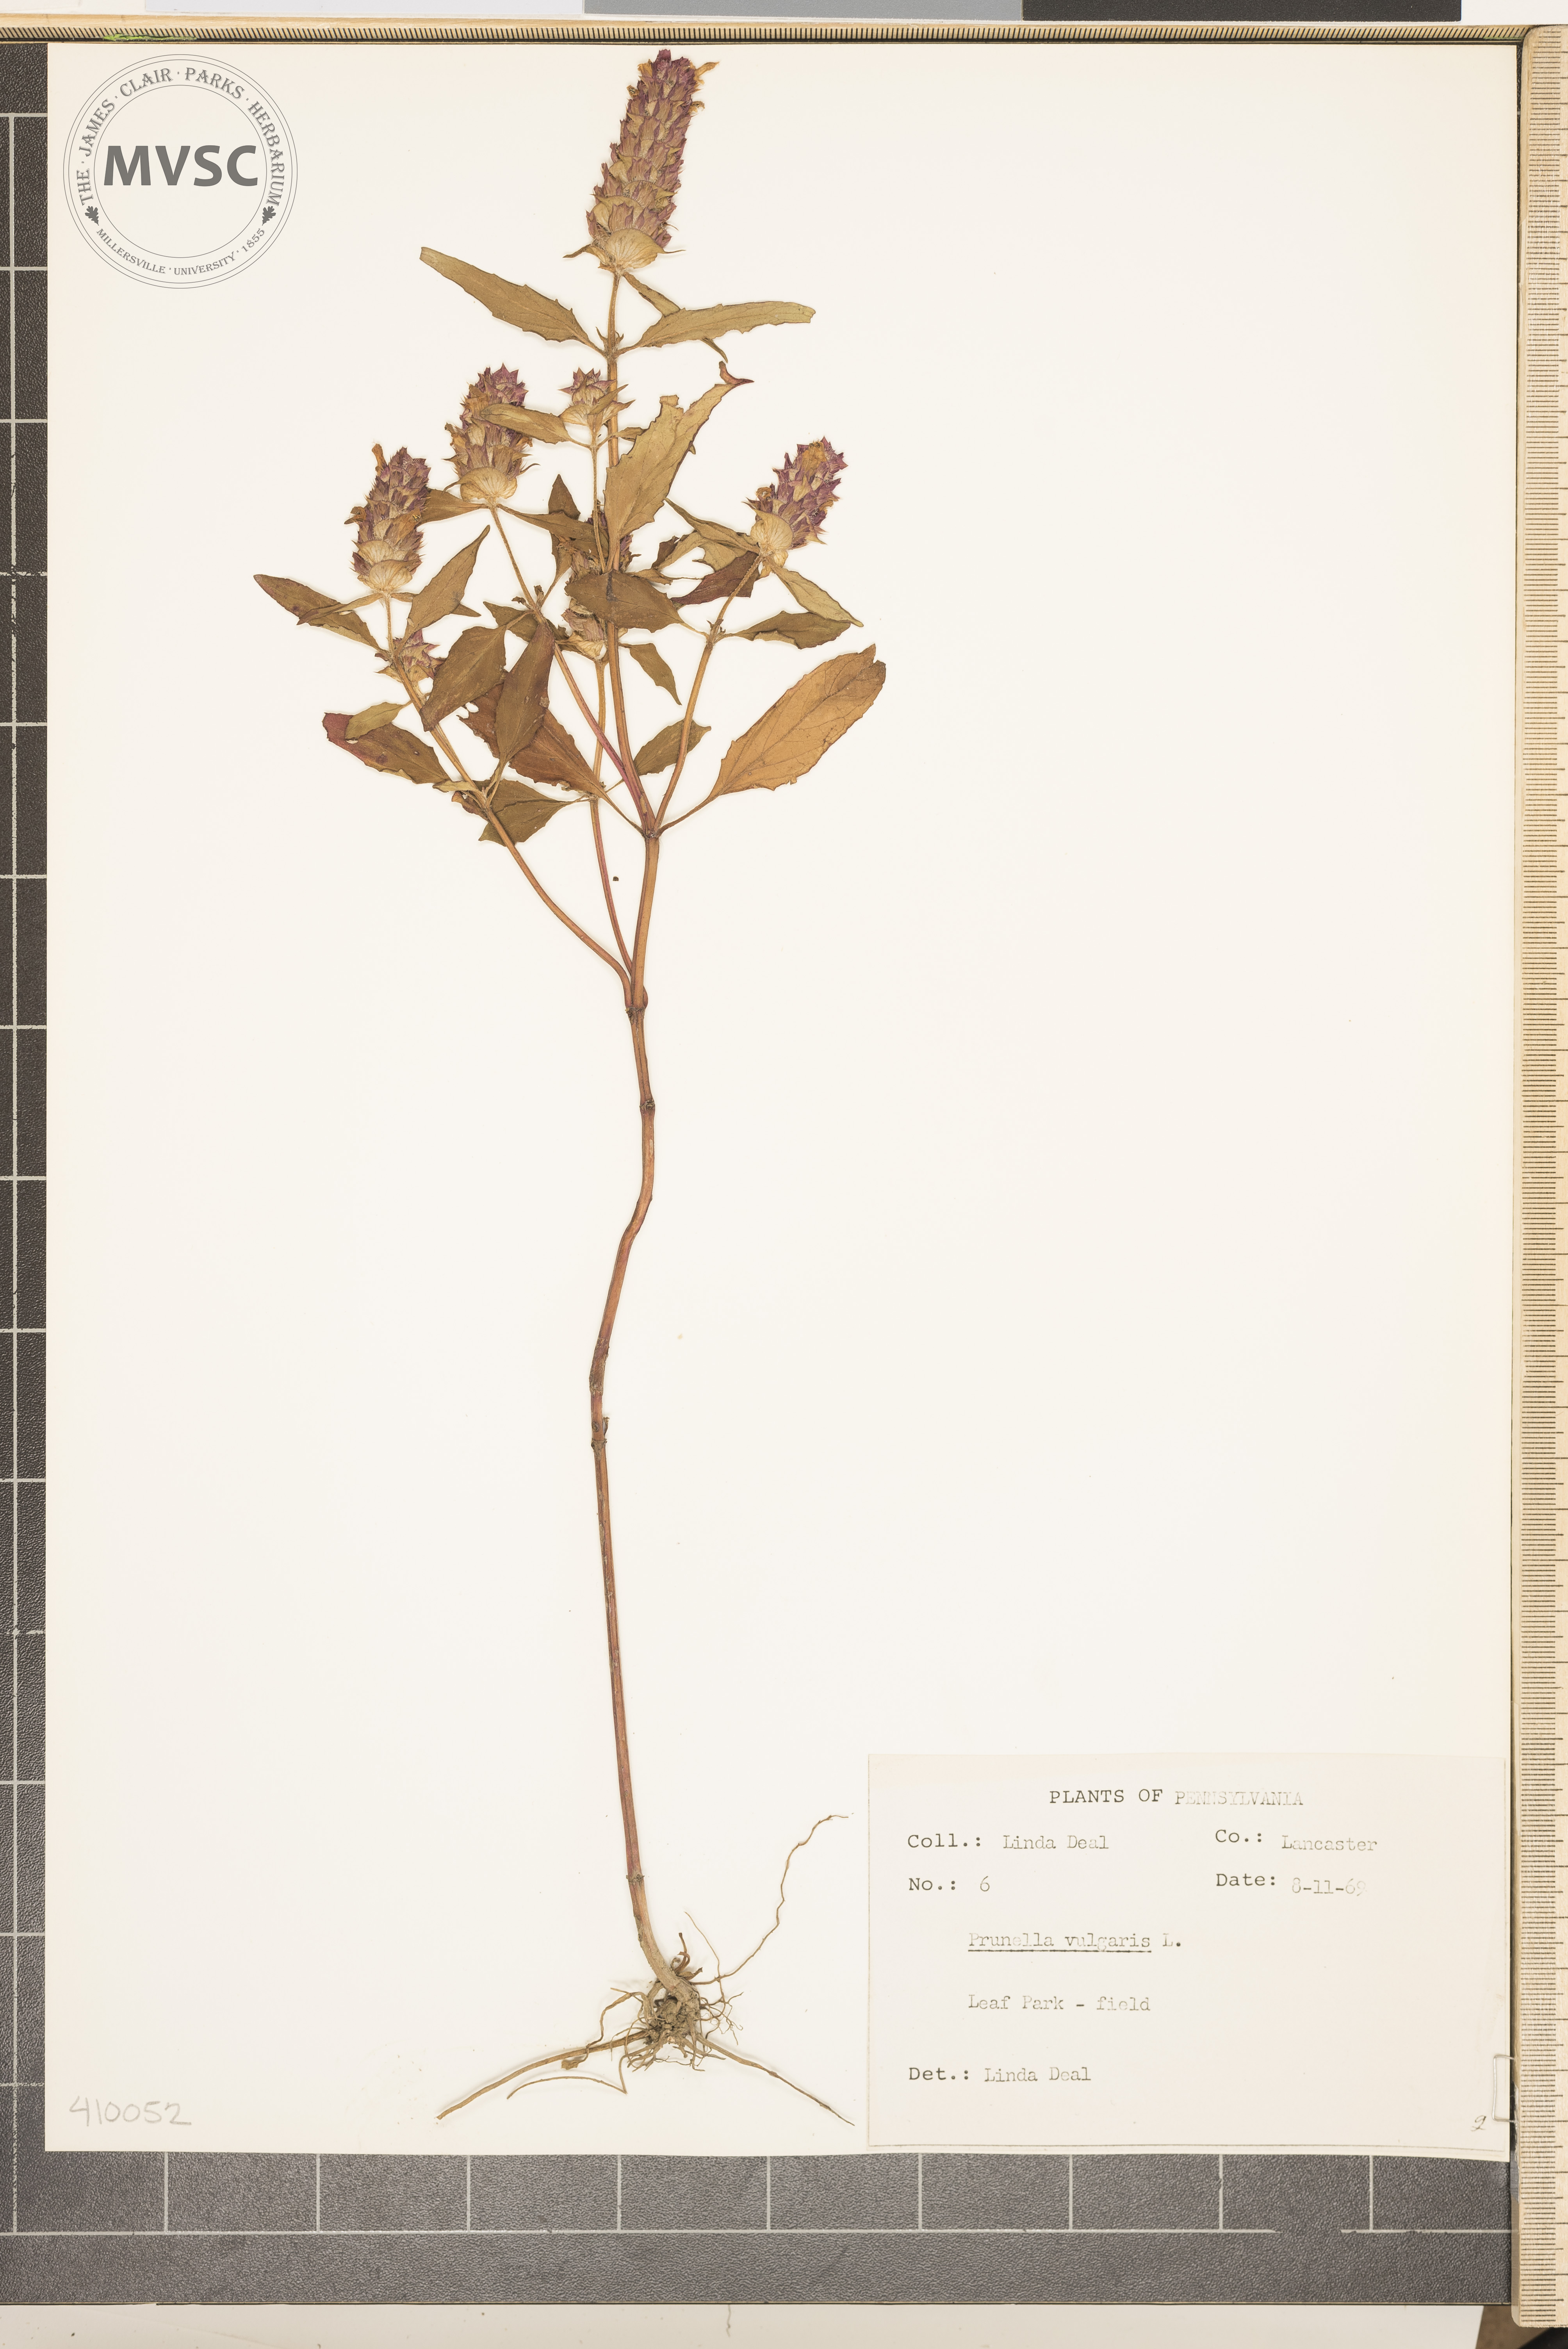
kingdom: Plantae
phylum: Tracheophyta
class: Magnoliopsida
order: Lamiales
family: Lamiaceae
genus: Prunella
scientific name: Prunella vulgaris
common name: Heal-all
